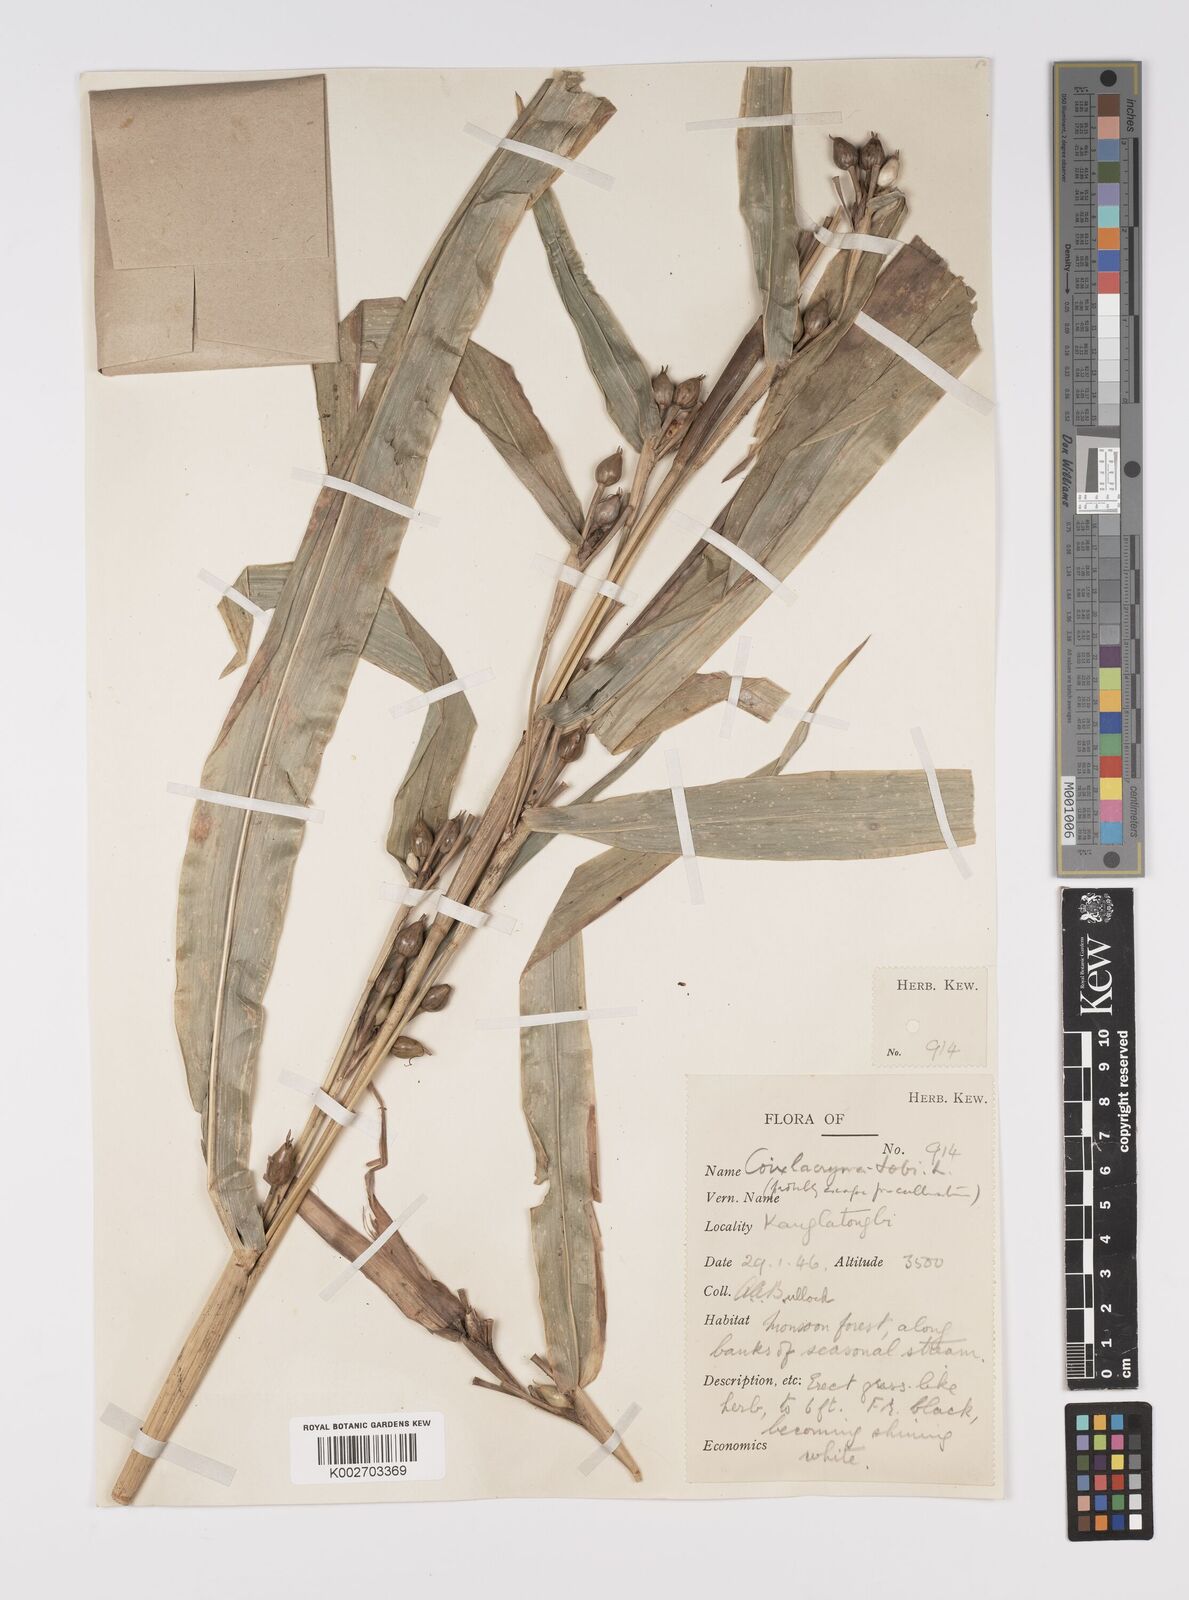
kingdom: Plantae
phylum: Tracheophyta
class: Liliopsida
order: Poales
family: Poaceae
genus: Coix
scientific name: Coix lacryma-jobi
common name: Job's tears
